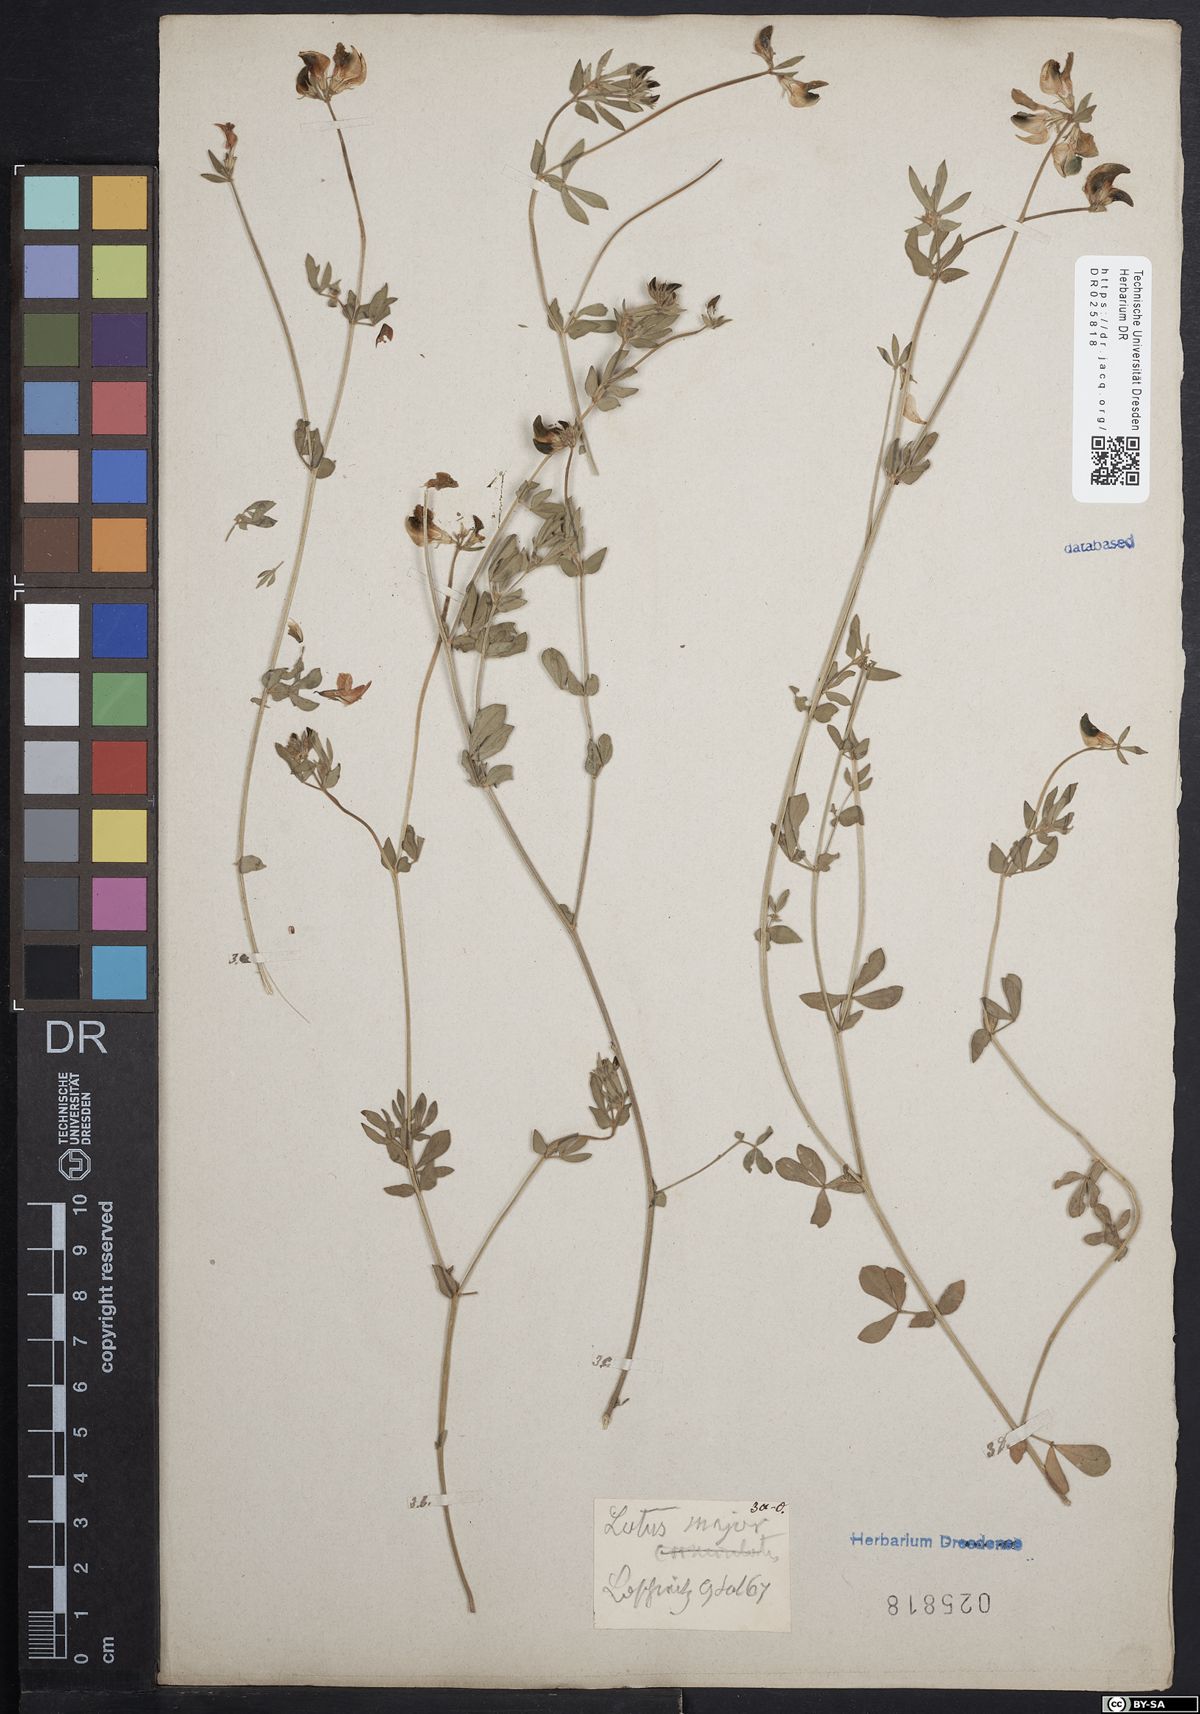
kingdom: Plantae
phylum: Tracheophyta
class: Magnoliopsida
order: Fabales
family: Fabaceae
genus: Lotus
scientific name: Lotus pedunculatus
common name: Greater birdsfoot-trefoil
